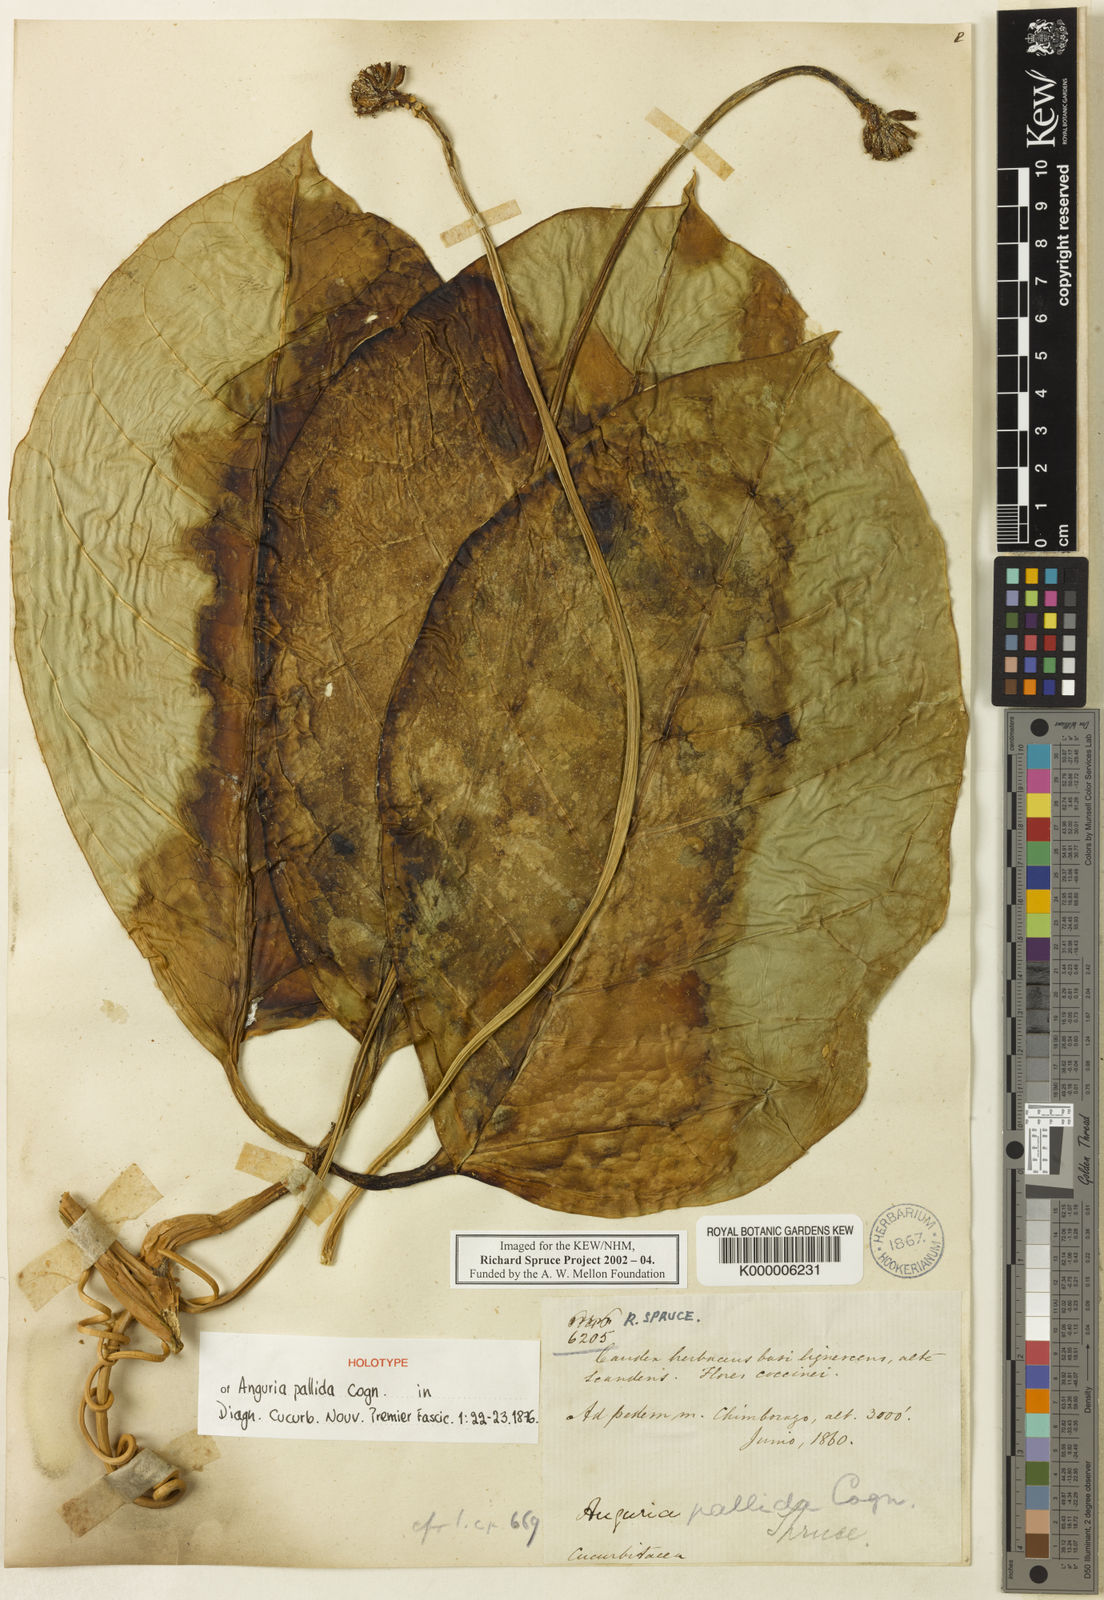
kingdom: Plantae
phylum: Tracheophyta
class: Magnoliopsida
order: Cucurbitales
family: Cucurbitaceae
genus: Psiguria
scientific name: Psiguria triphylla
